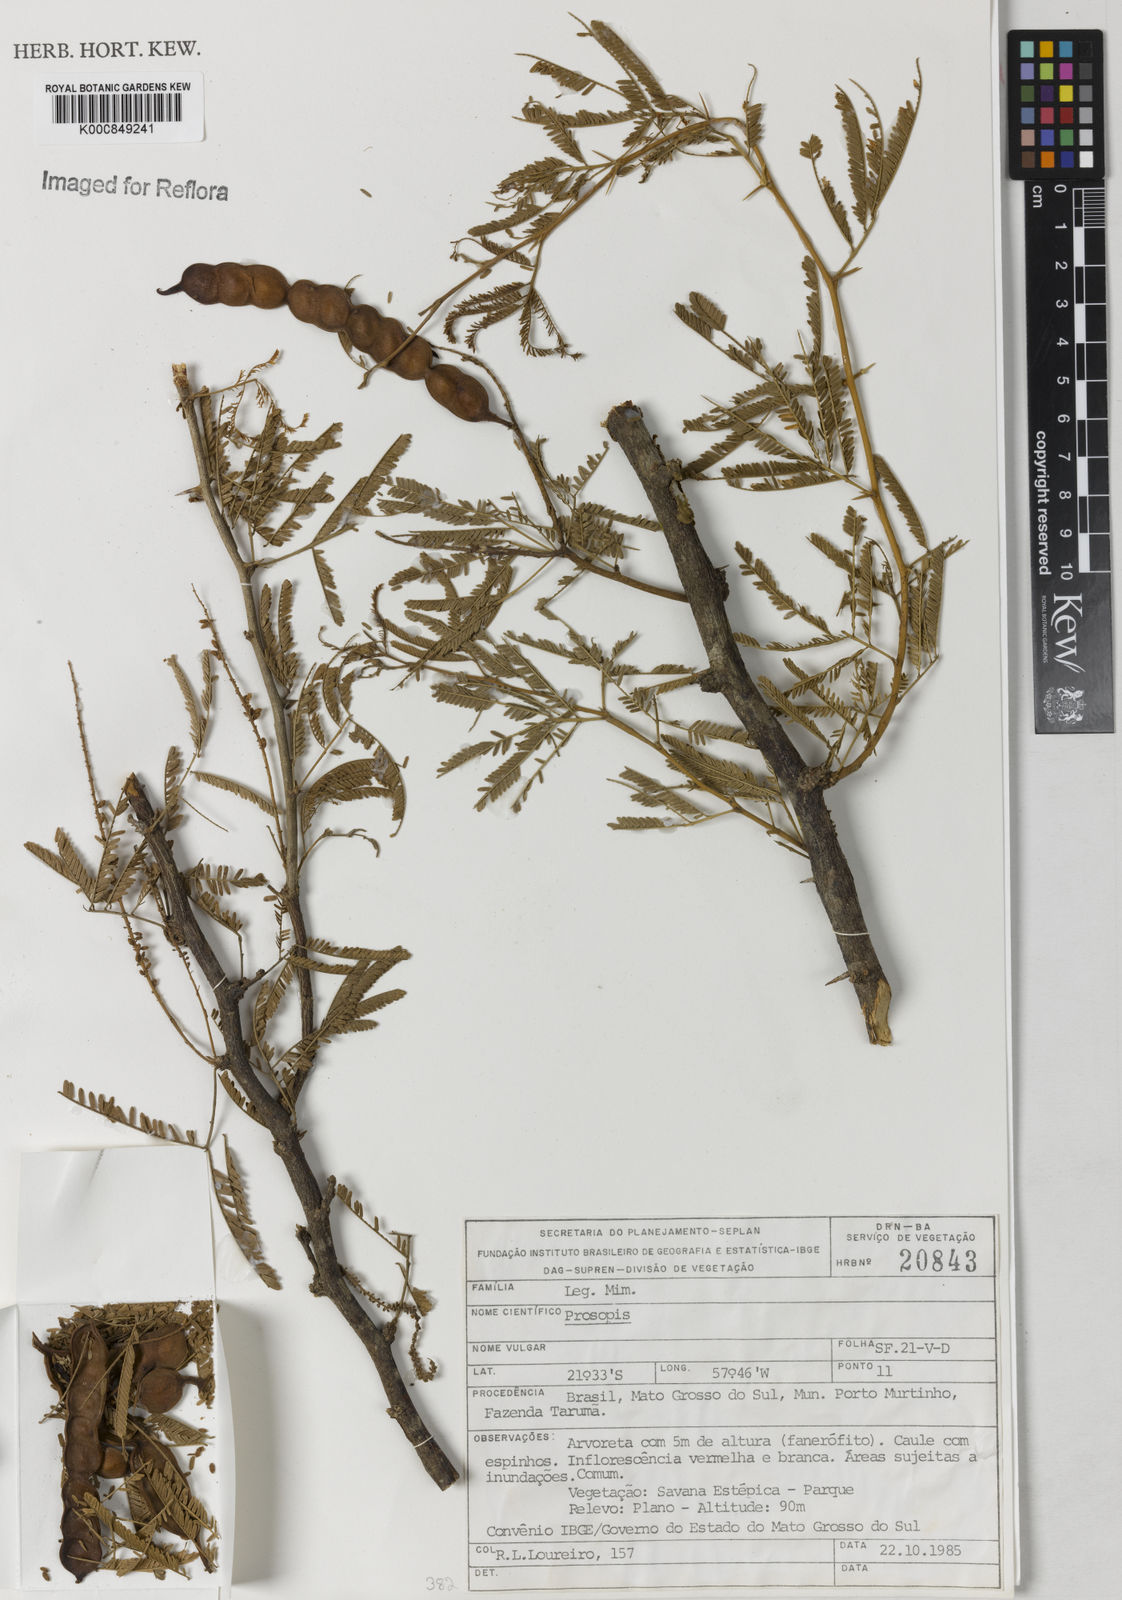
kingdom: Plantae
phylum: Tracheophyta
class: Magnoliopsida
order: Fabales
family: Fabaceae
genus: Prosopis
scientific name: Prosopis
